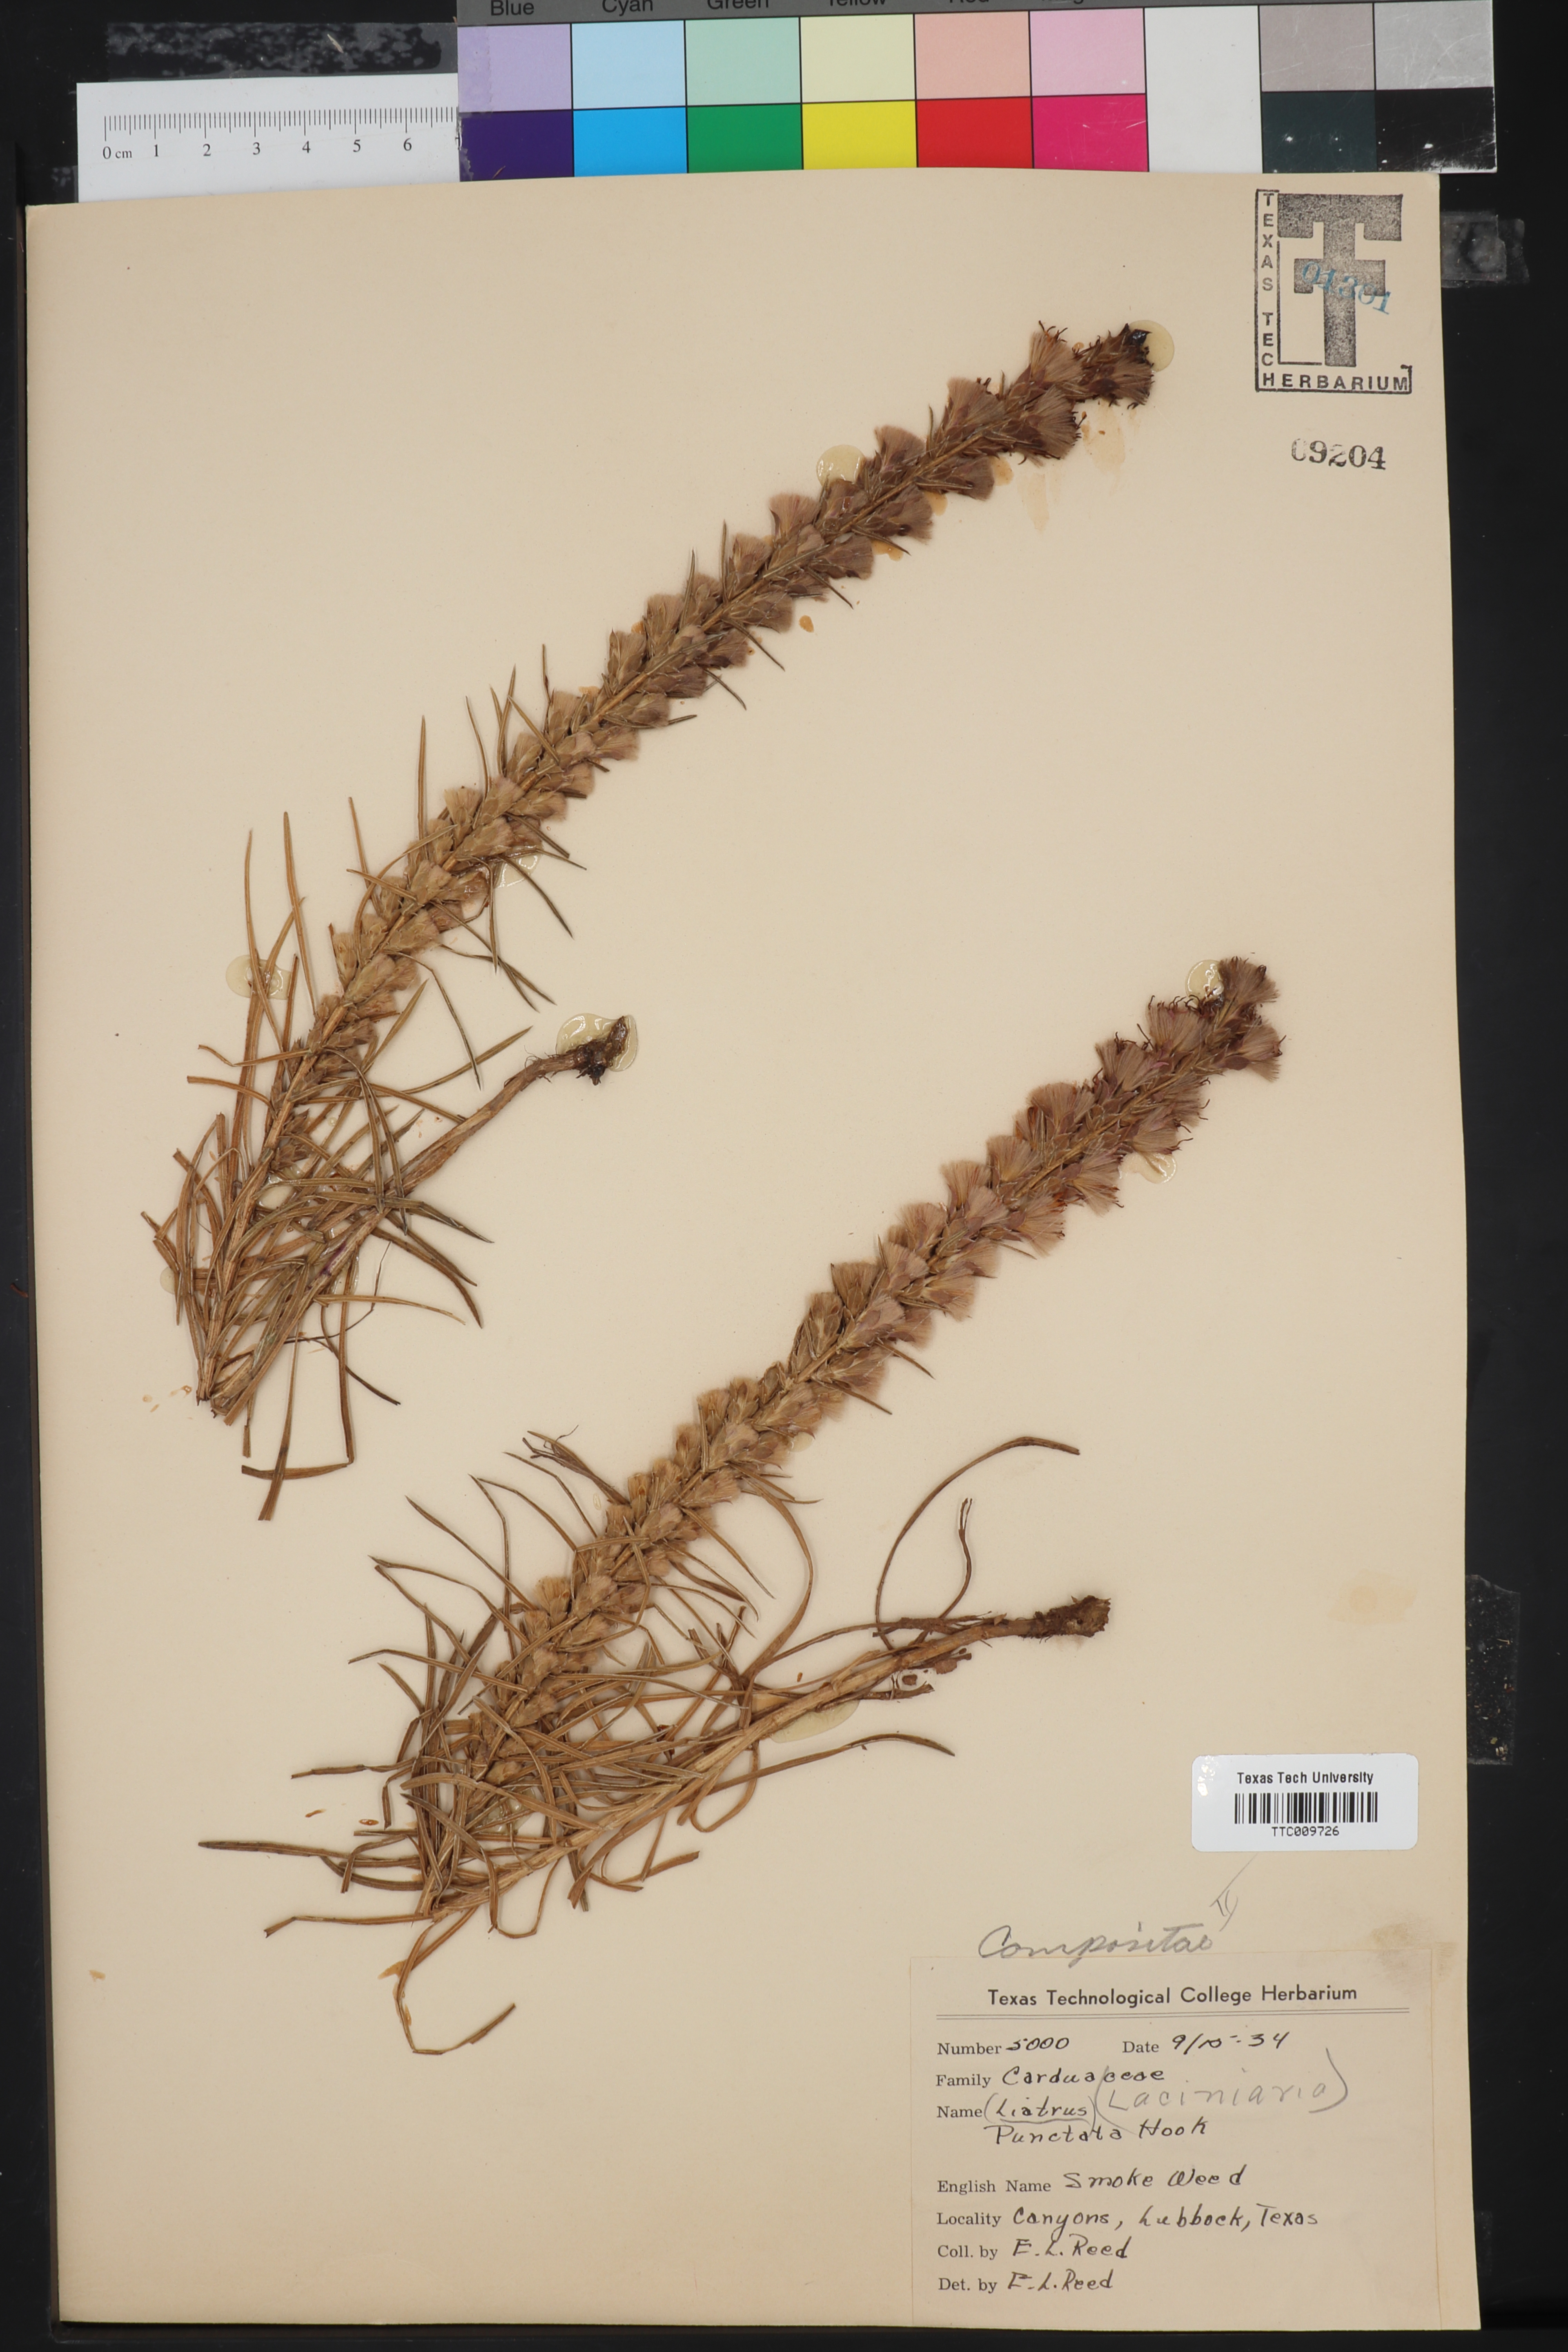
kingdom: Plantae
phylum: Tracheophyta
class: Magnoliopsida
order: Asterales
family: Asteraceae
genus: Liatris
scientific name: Liatris punctata
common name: Dotted gayfeather
